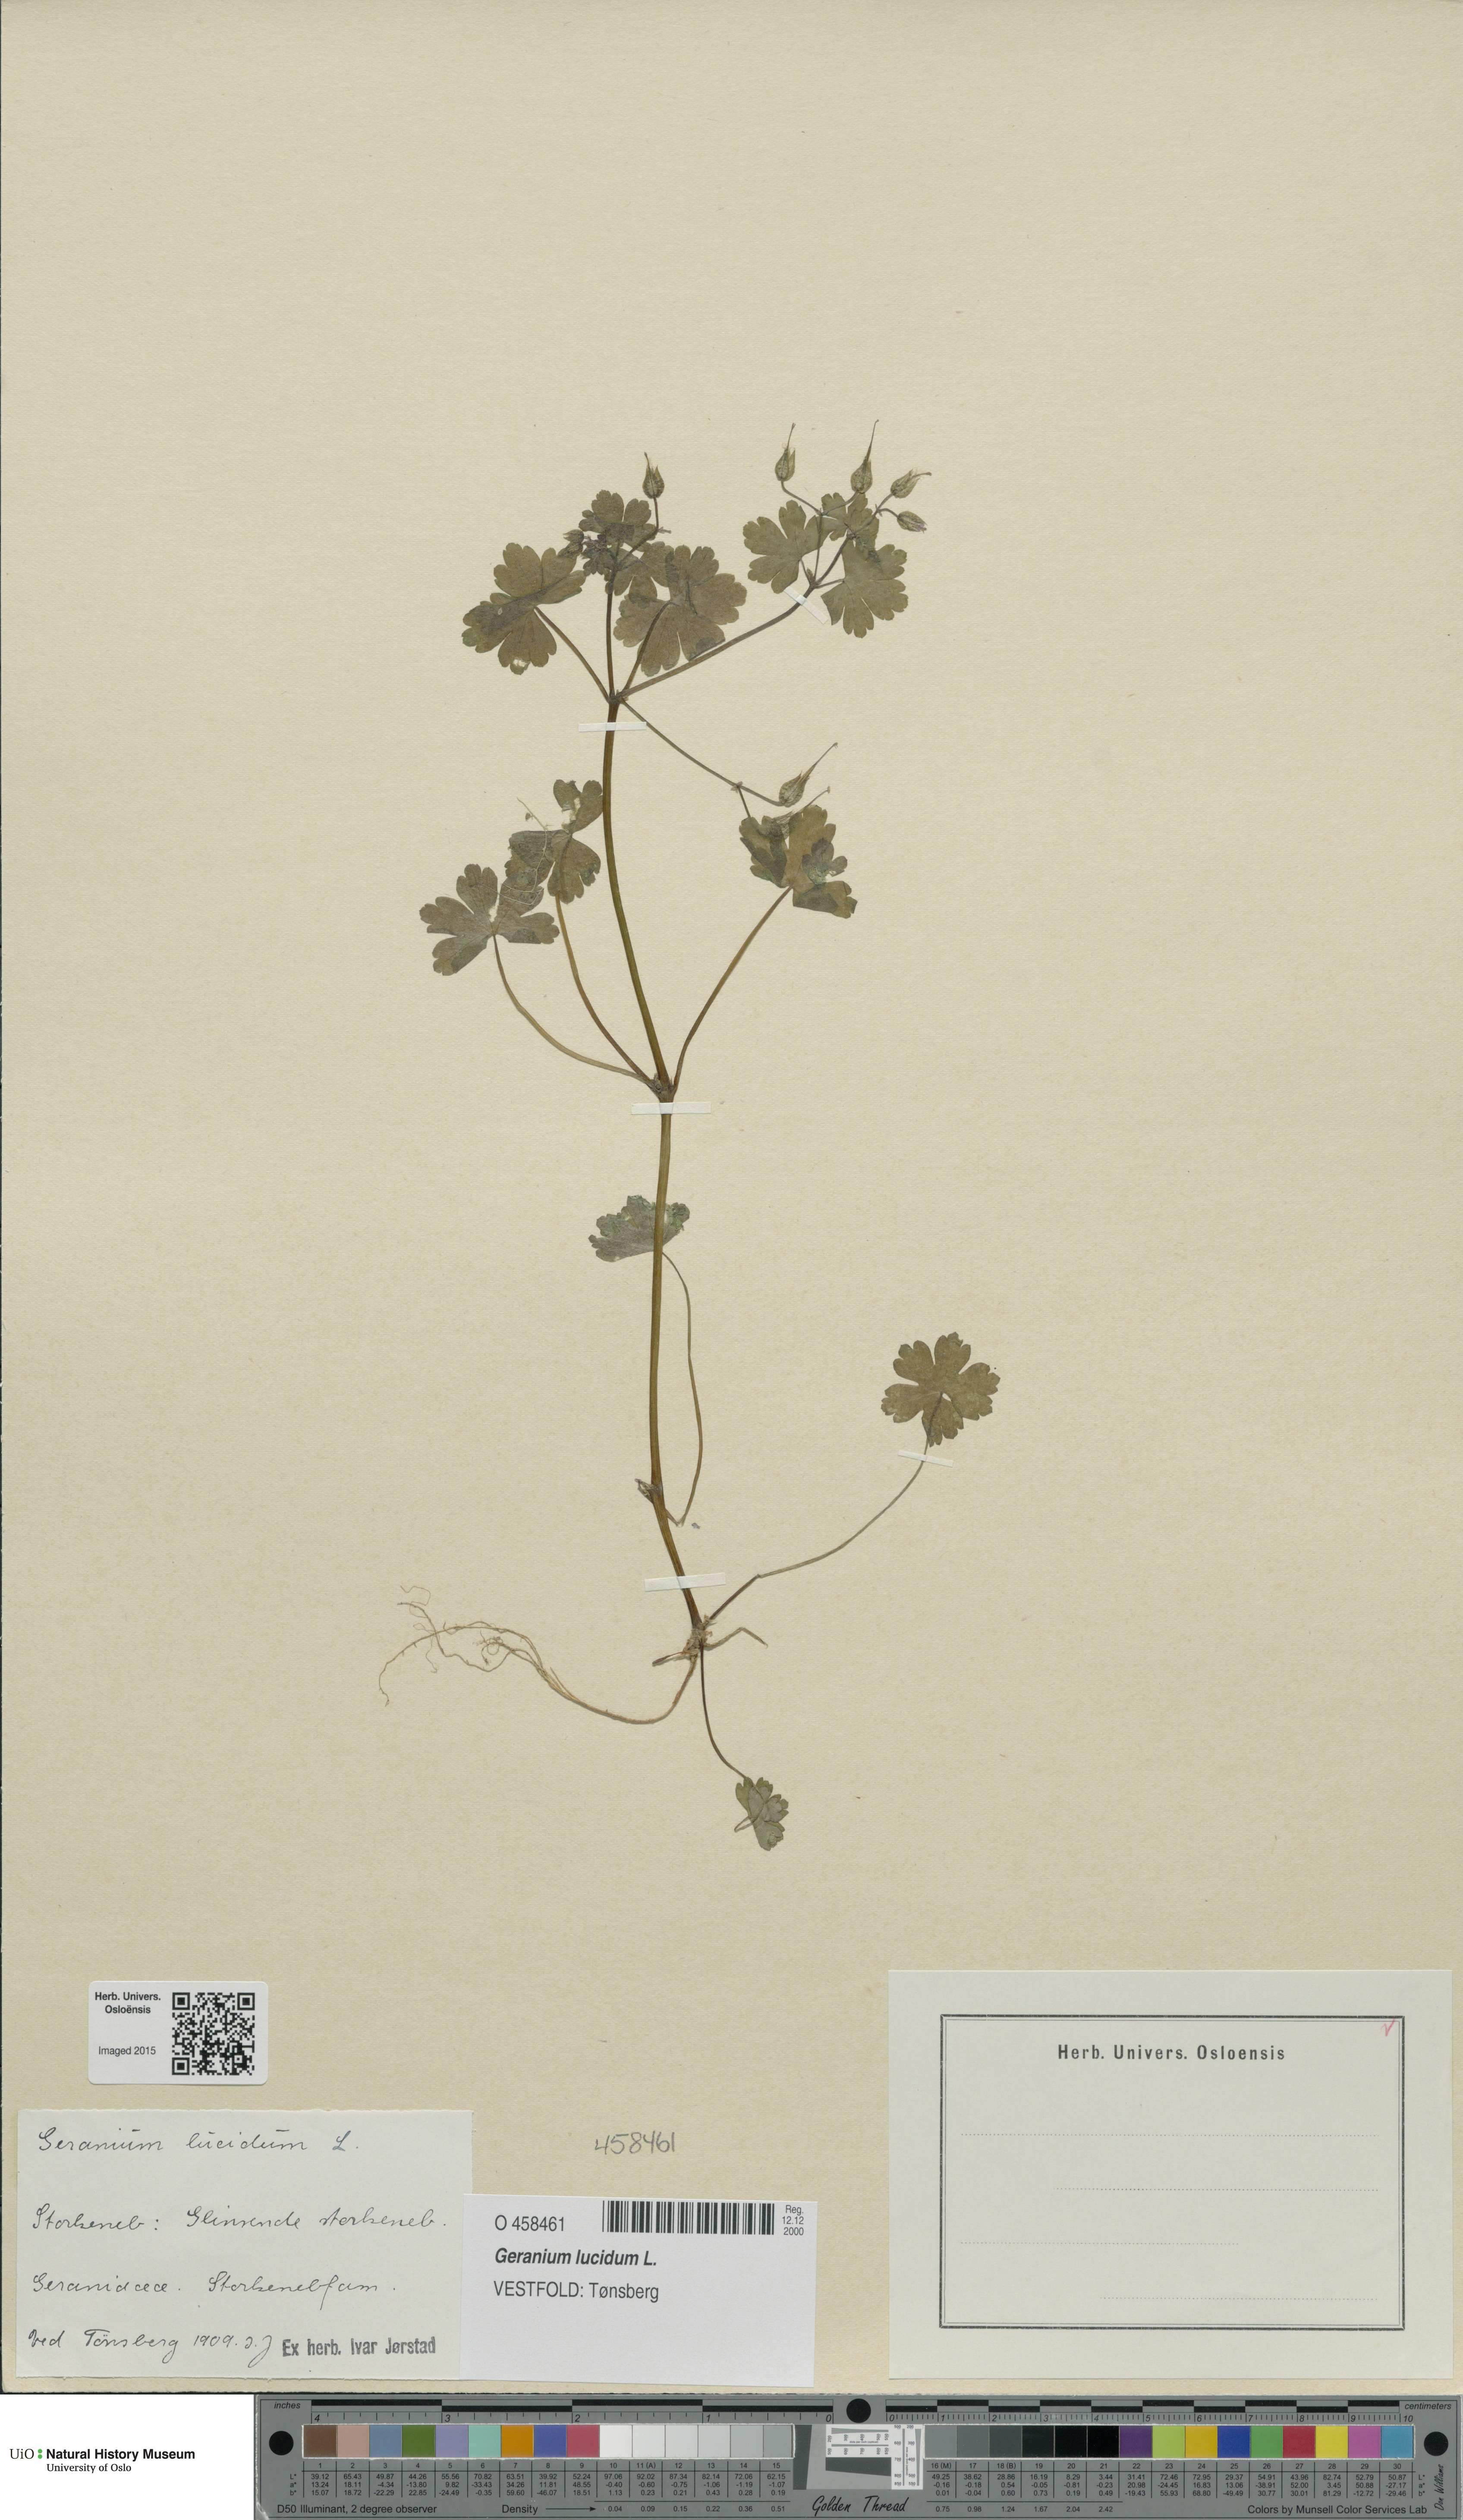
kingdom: Plantae
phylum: Tracheophyta
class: Magnoliopsida
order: Geraniales
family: Geraniaceae
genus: Geranium
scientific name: Geranium lucidum
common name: Shining crane's-bill
